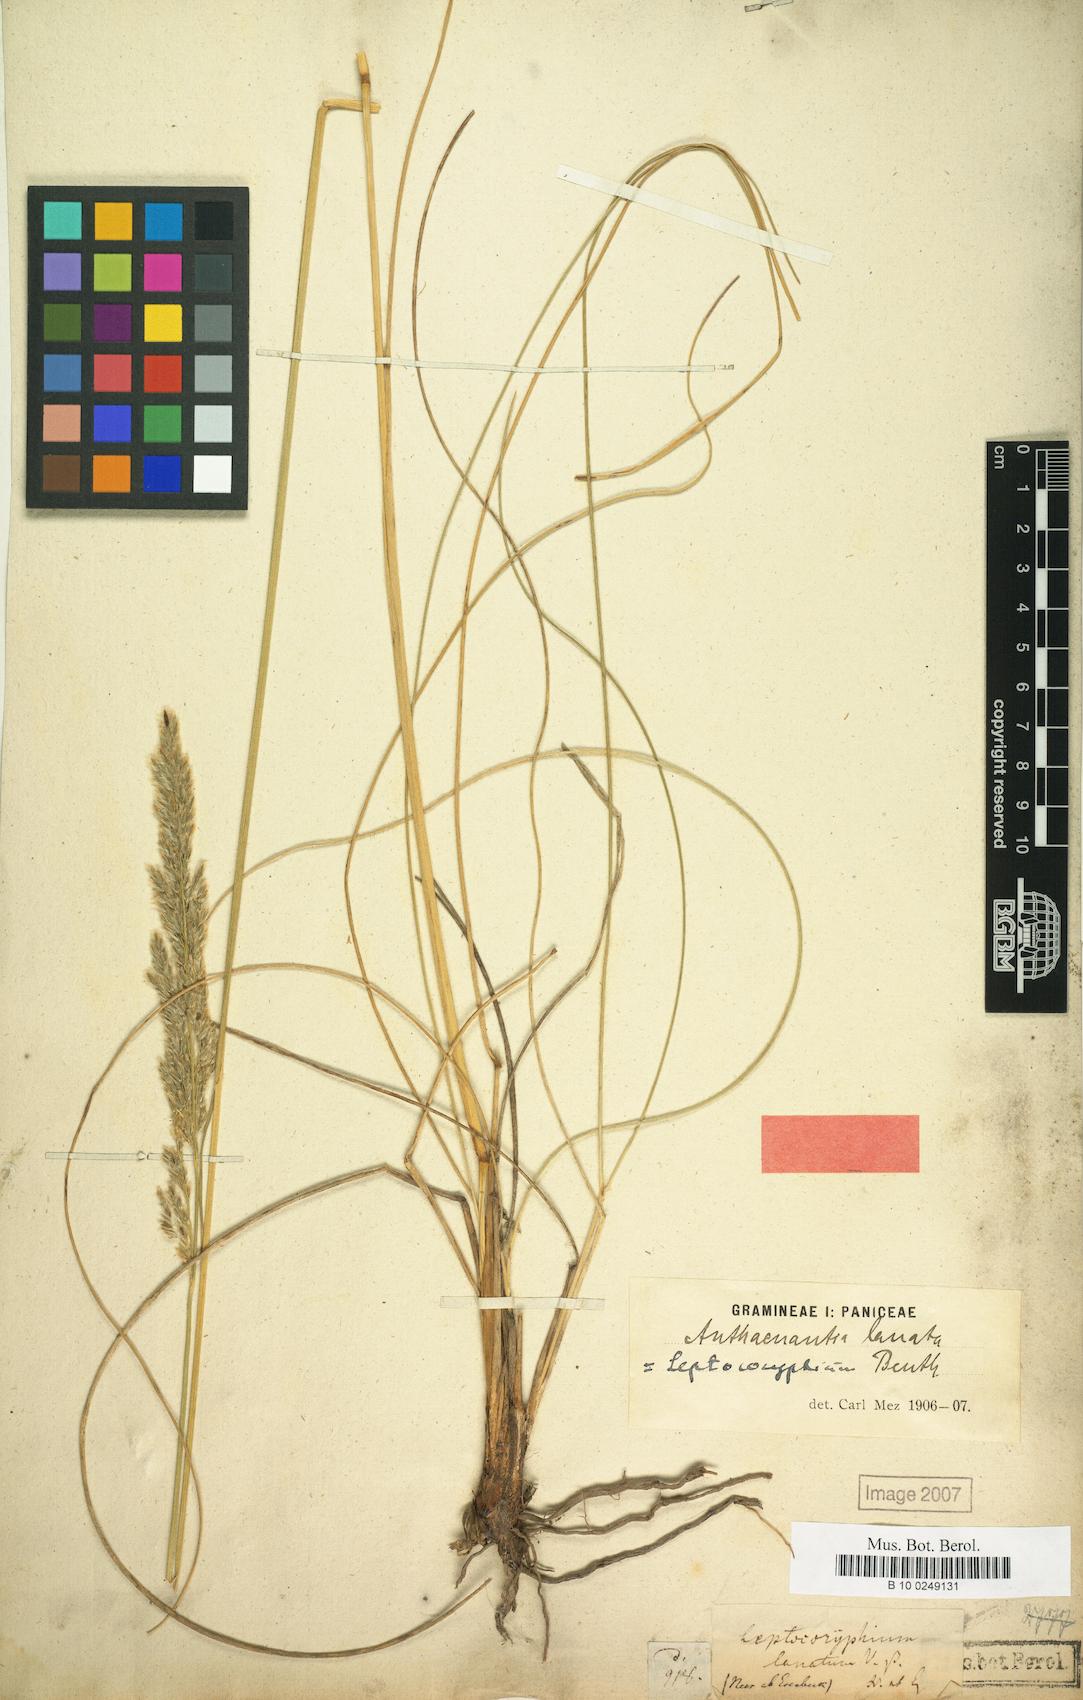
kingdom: Plantae
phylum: Tracheophyta
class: Liliopsida
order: Poales
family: Poaceae
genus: Anthenantia
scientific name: Anthenantia lanata
